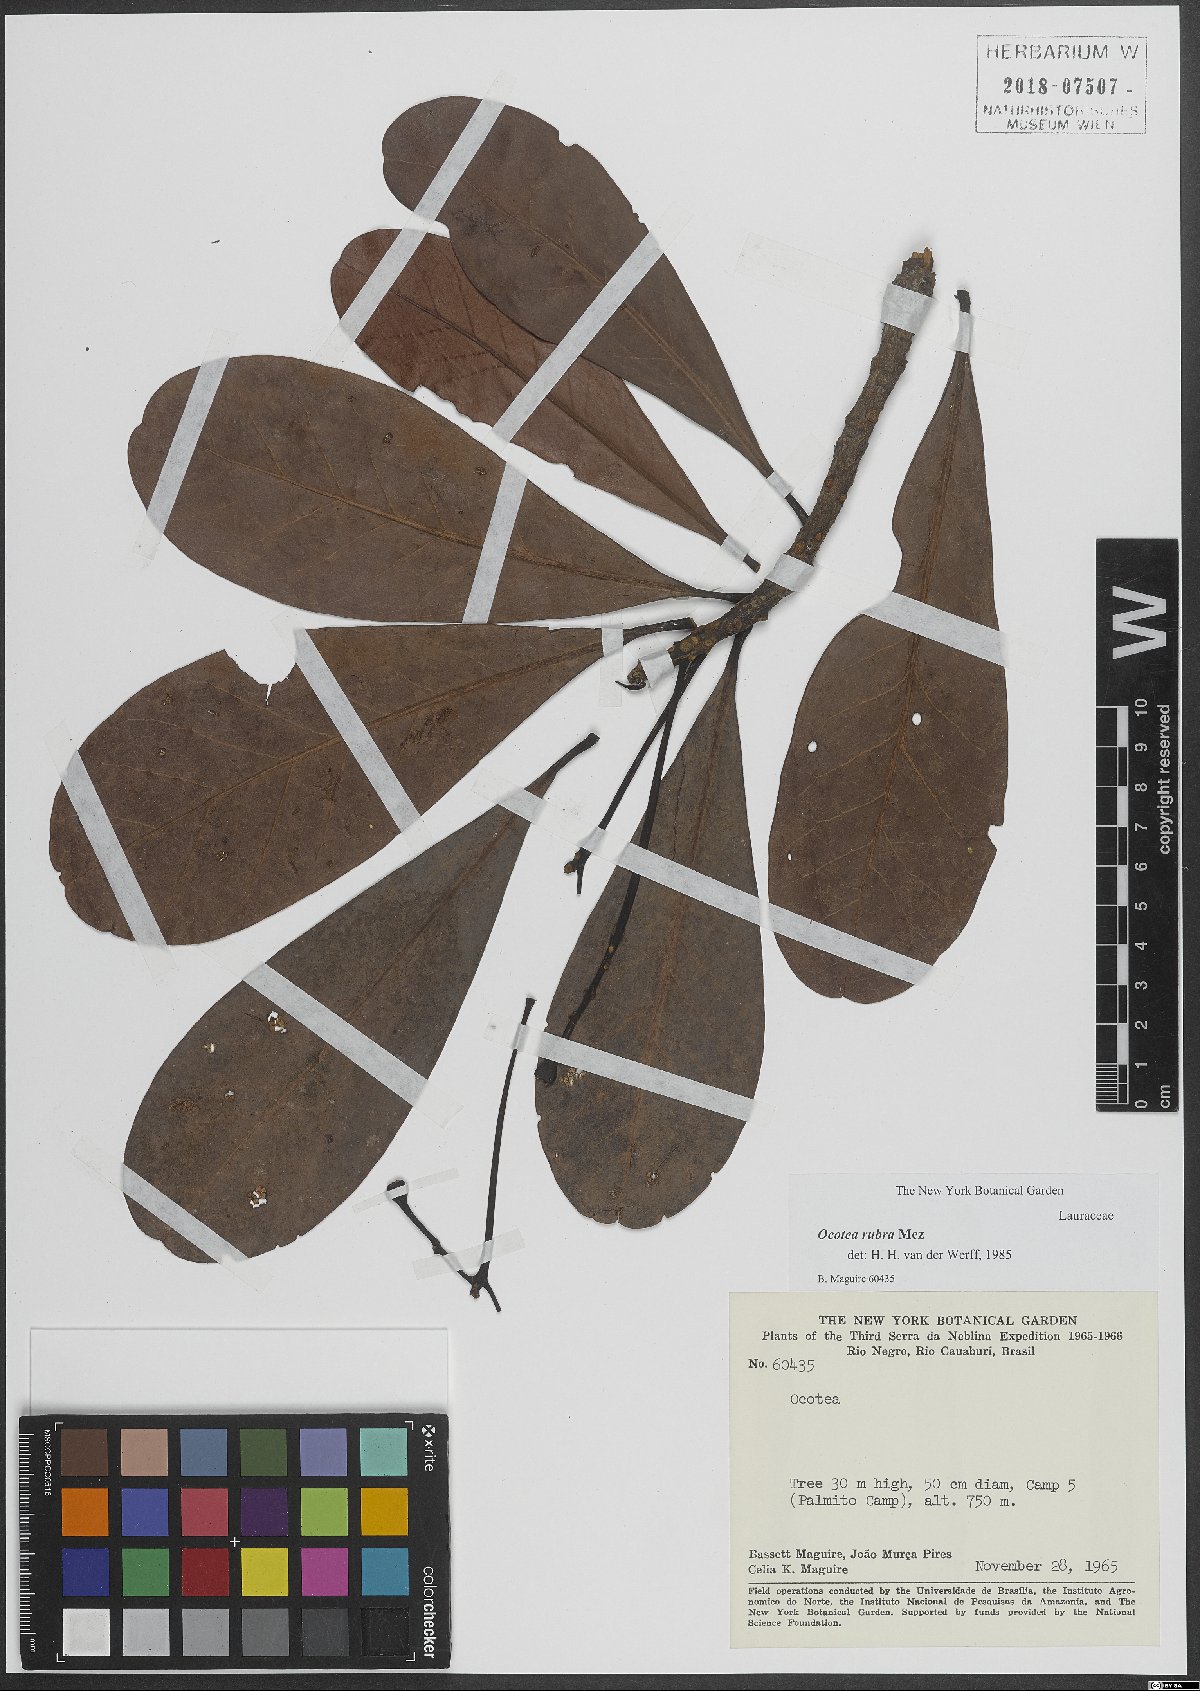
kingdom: Plantae
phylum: Tracheophyta
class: Magnoliopsida
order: Laurales
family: Lauraceae
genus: Sextonia
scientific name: Sextonia rubra
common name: Red louro
